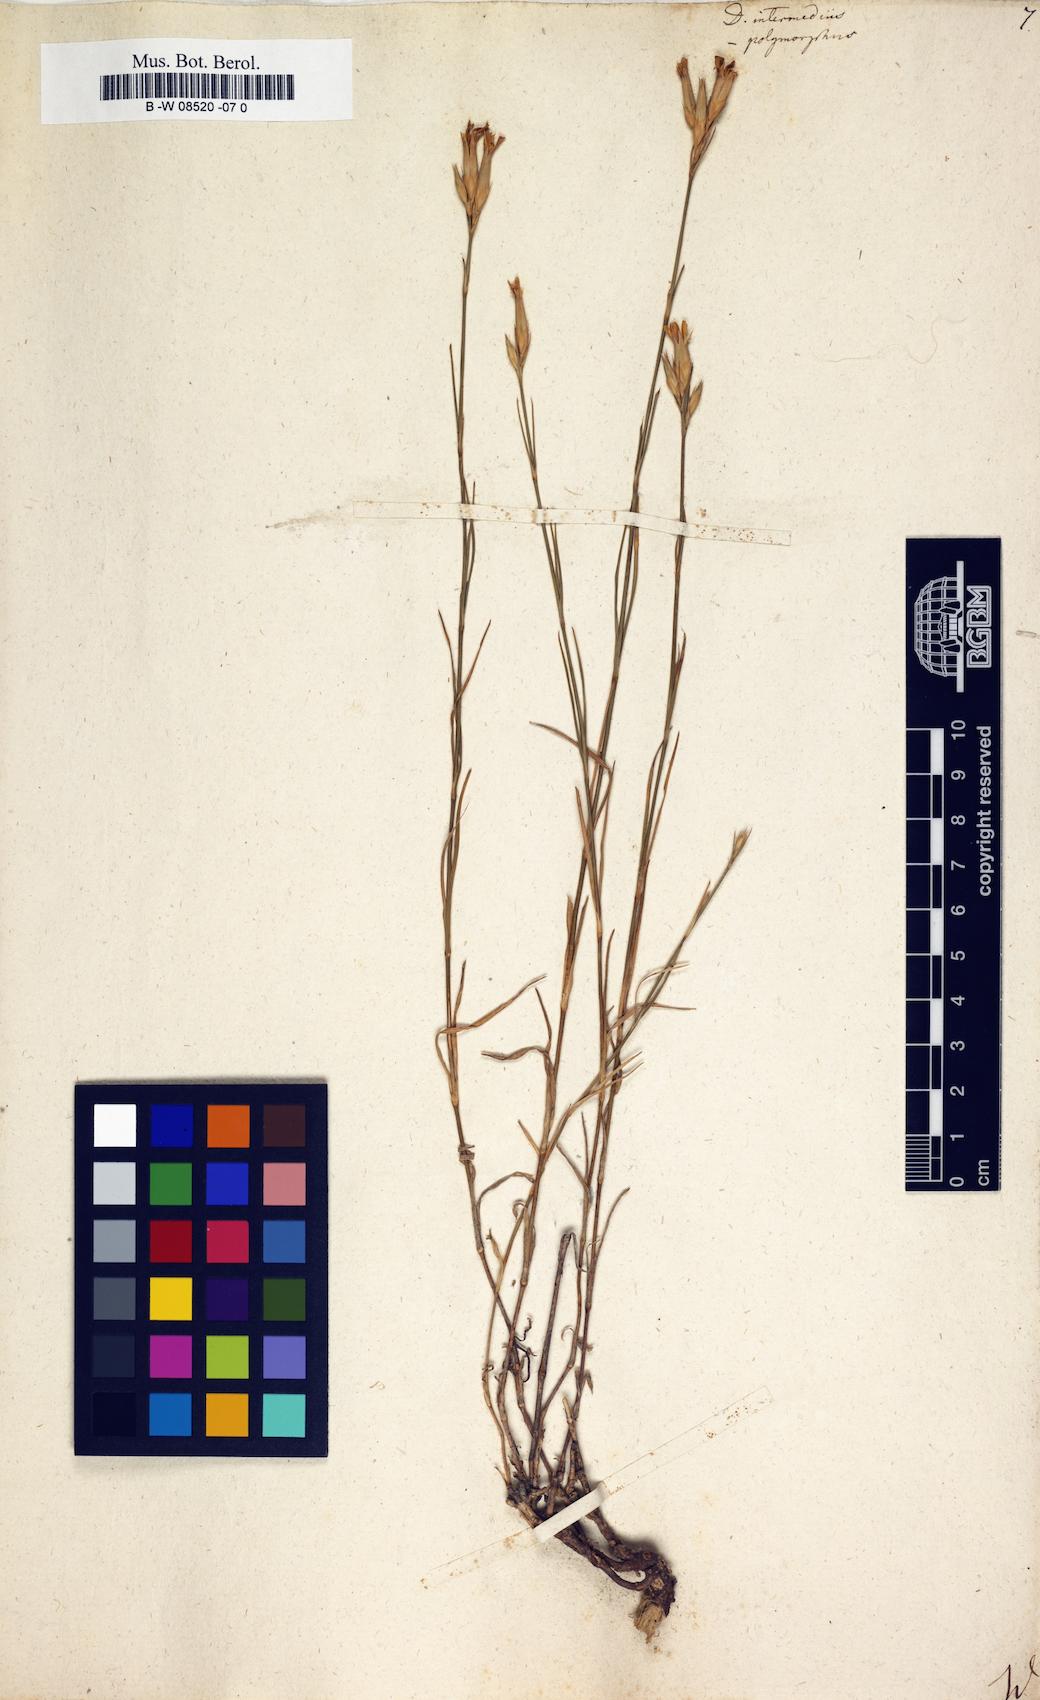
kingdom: Plantae
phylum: Tracheophyta
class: Magnoliopsida
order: Caryophyllales
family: Caryophyllaceae
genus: Dianthus
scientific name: Dianthus
